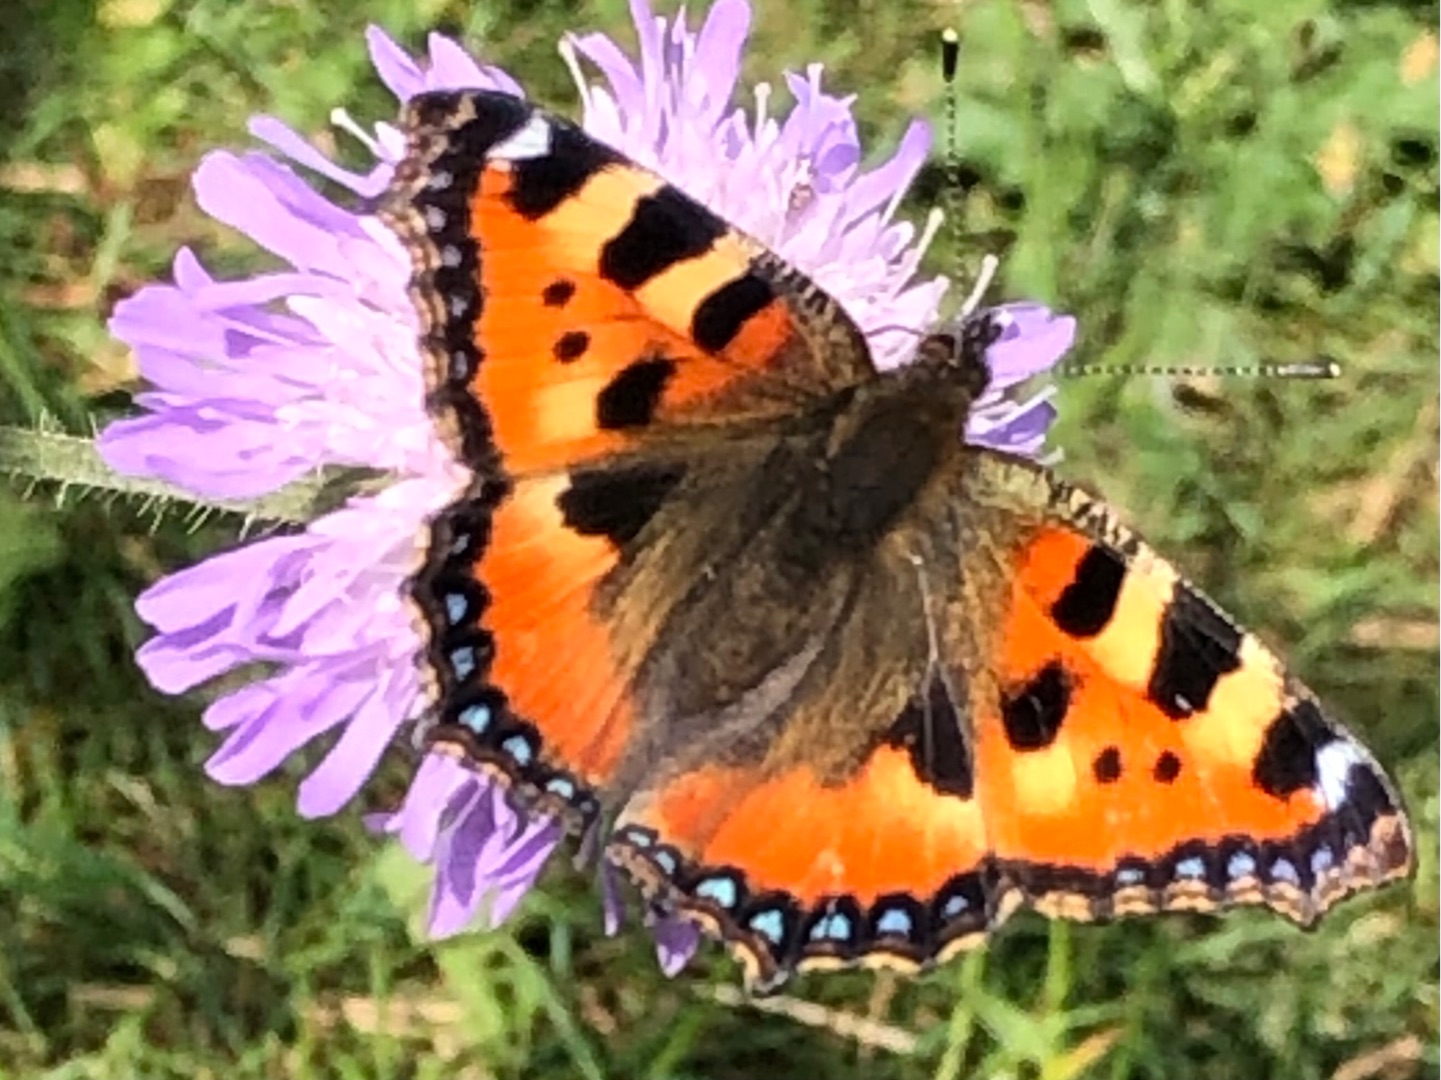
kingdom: Animalia
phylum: Arthropoda
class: Insecta
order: Lepidoptera
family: Nymphalidae
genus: Aglais
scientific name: Aglais urticae
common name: Nældens takvinge
